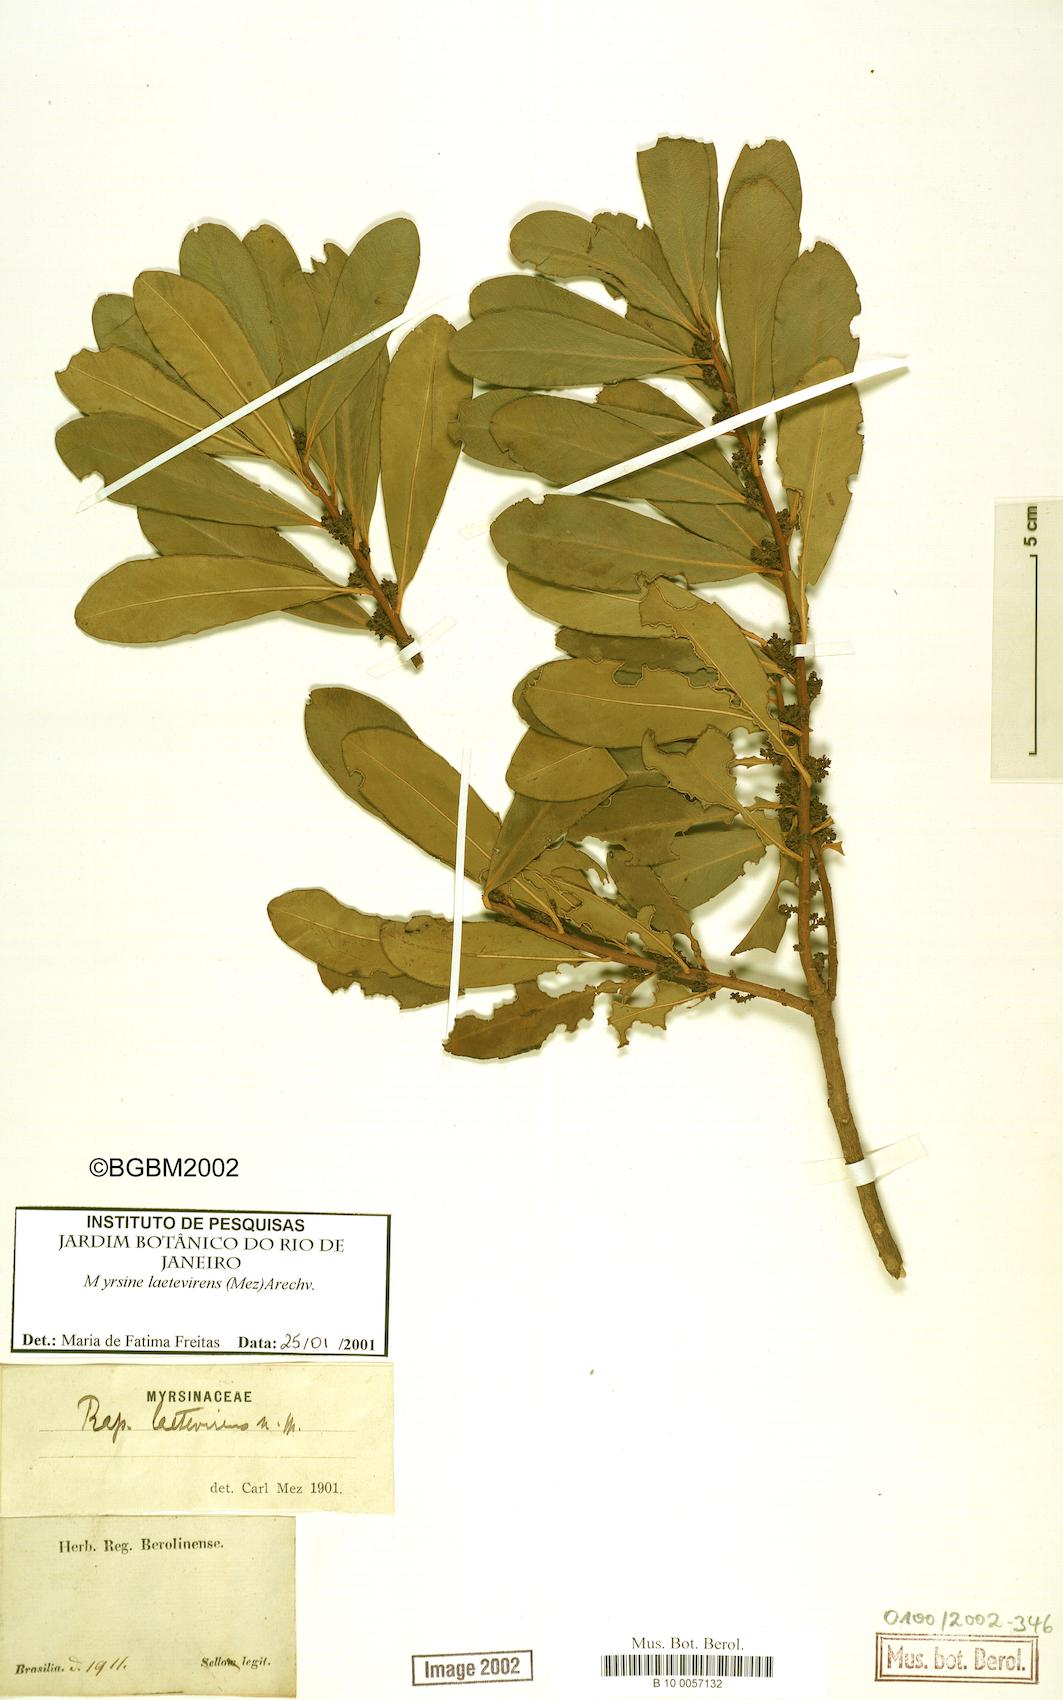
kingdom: Plantae
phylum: Tracheophyta
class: Magnoliopsida
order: Ericales
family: Primulaceae
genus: Myrsine
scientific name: Myrsine laetevirens
